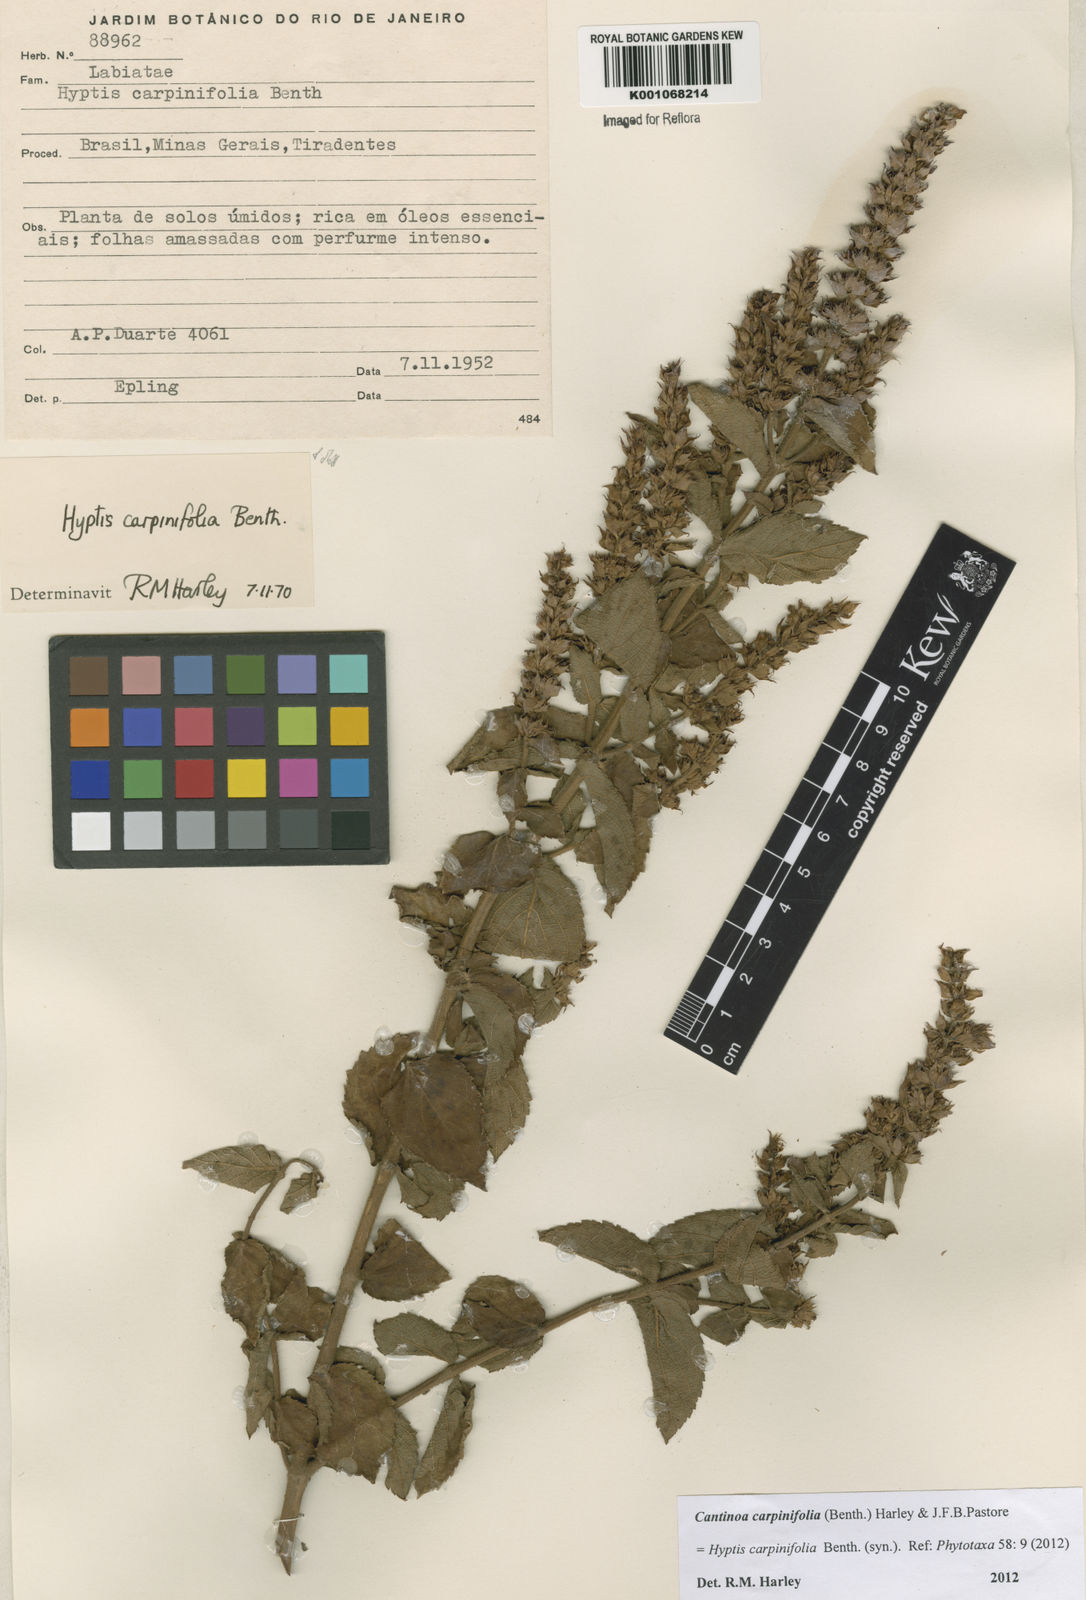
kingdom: Plantae
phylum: Tracheophyta
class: Magnoliopsida
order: Lamiales
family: Lamiaceae
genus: Cantinoa
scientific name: Cantinoa carpinifolia
